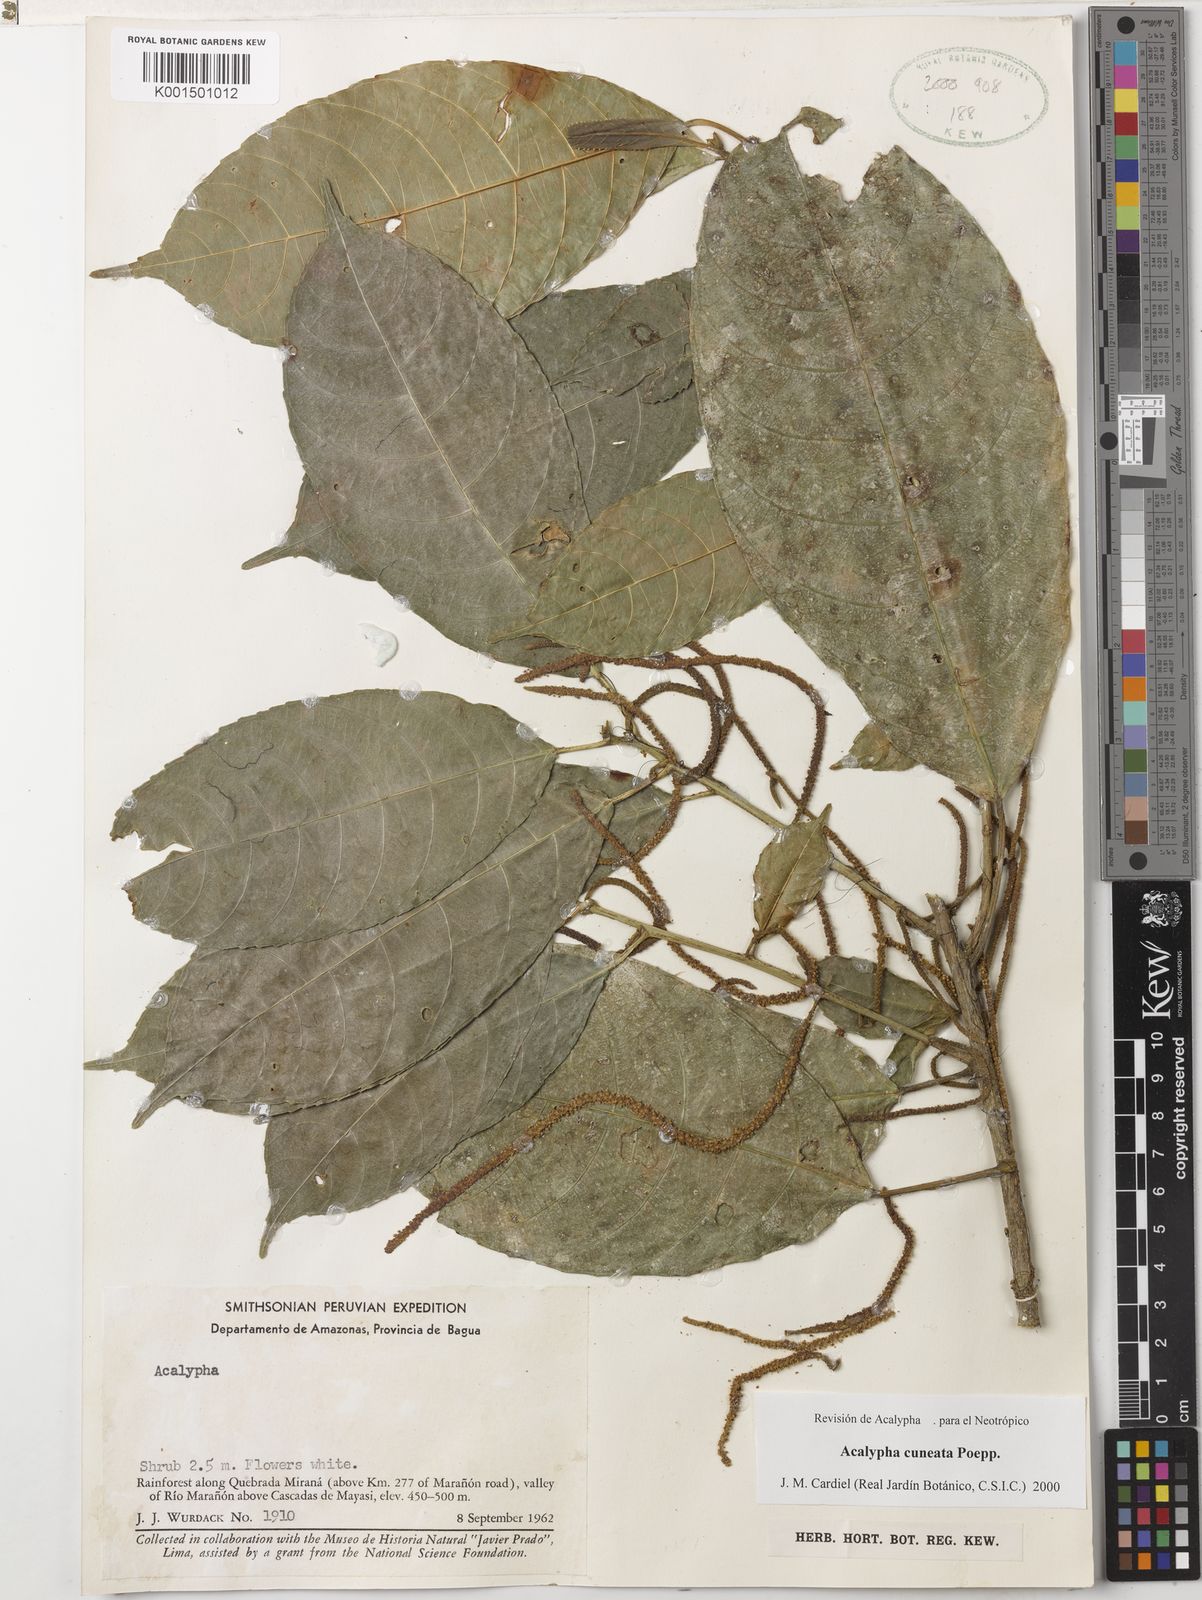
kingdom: Plantae
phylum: Tracheophyta
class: Magnoliopsida
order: Malpighiales
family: Euphorbiaceae
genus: Acalypha
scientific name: Acalypha cuneata
